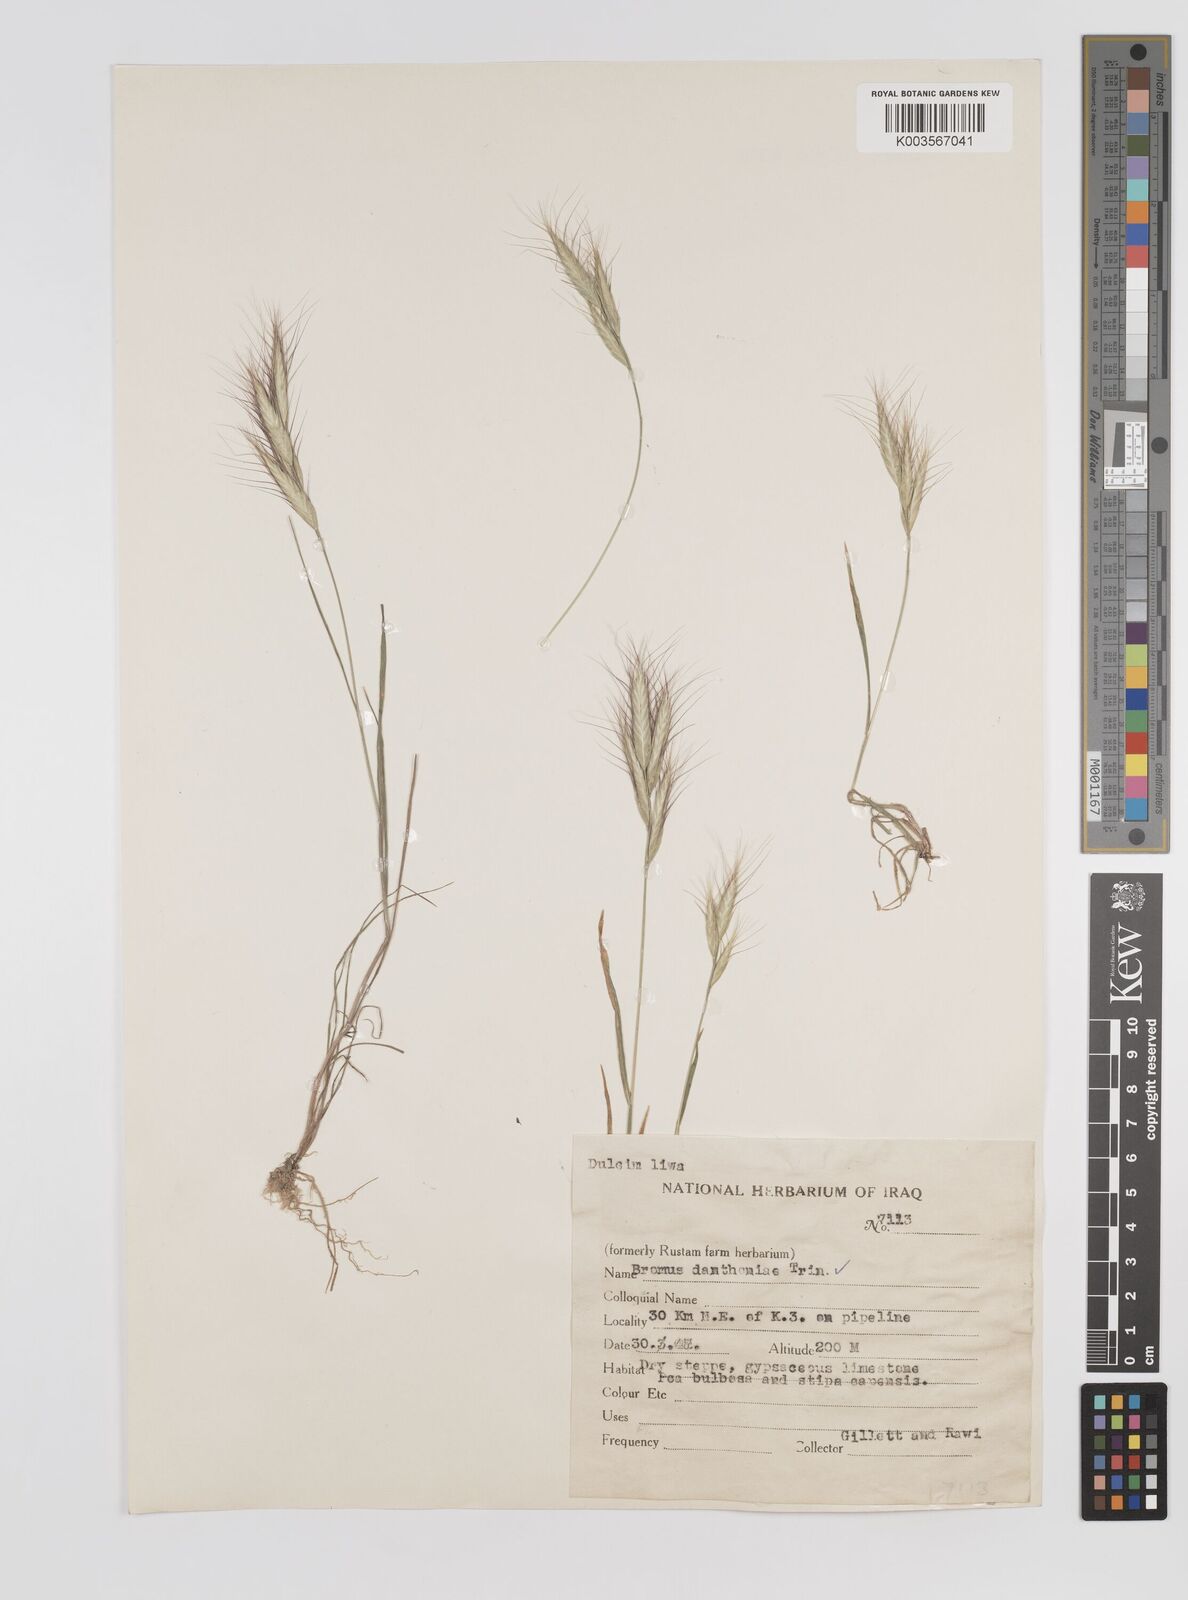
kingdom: Plantae
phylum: Tracheophyta
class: Liliopsida
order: Poales
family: Poaceae
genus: Bromus
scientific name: Bromus danthoniae
